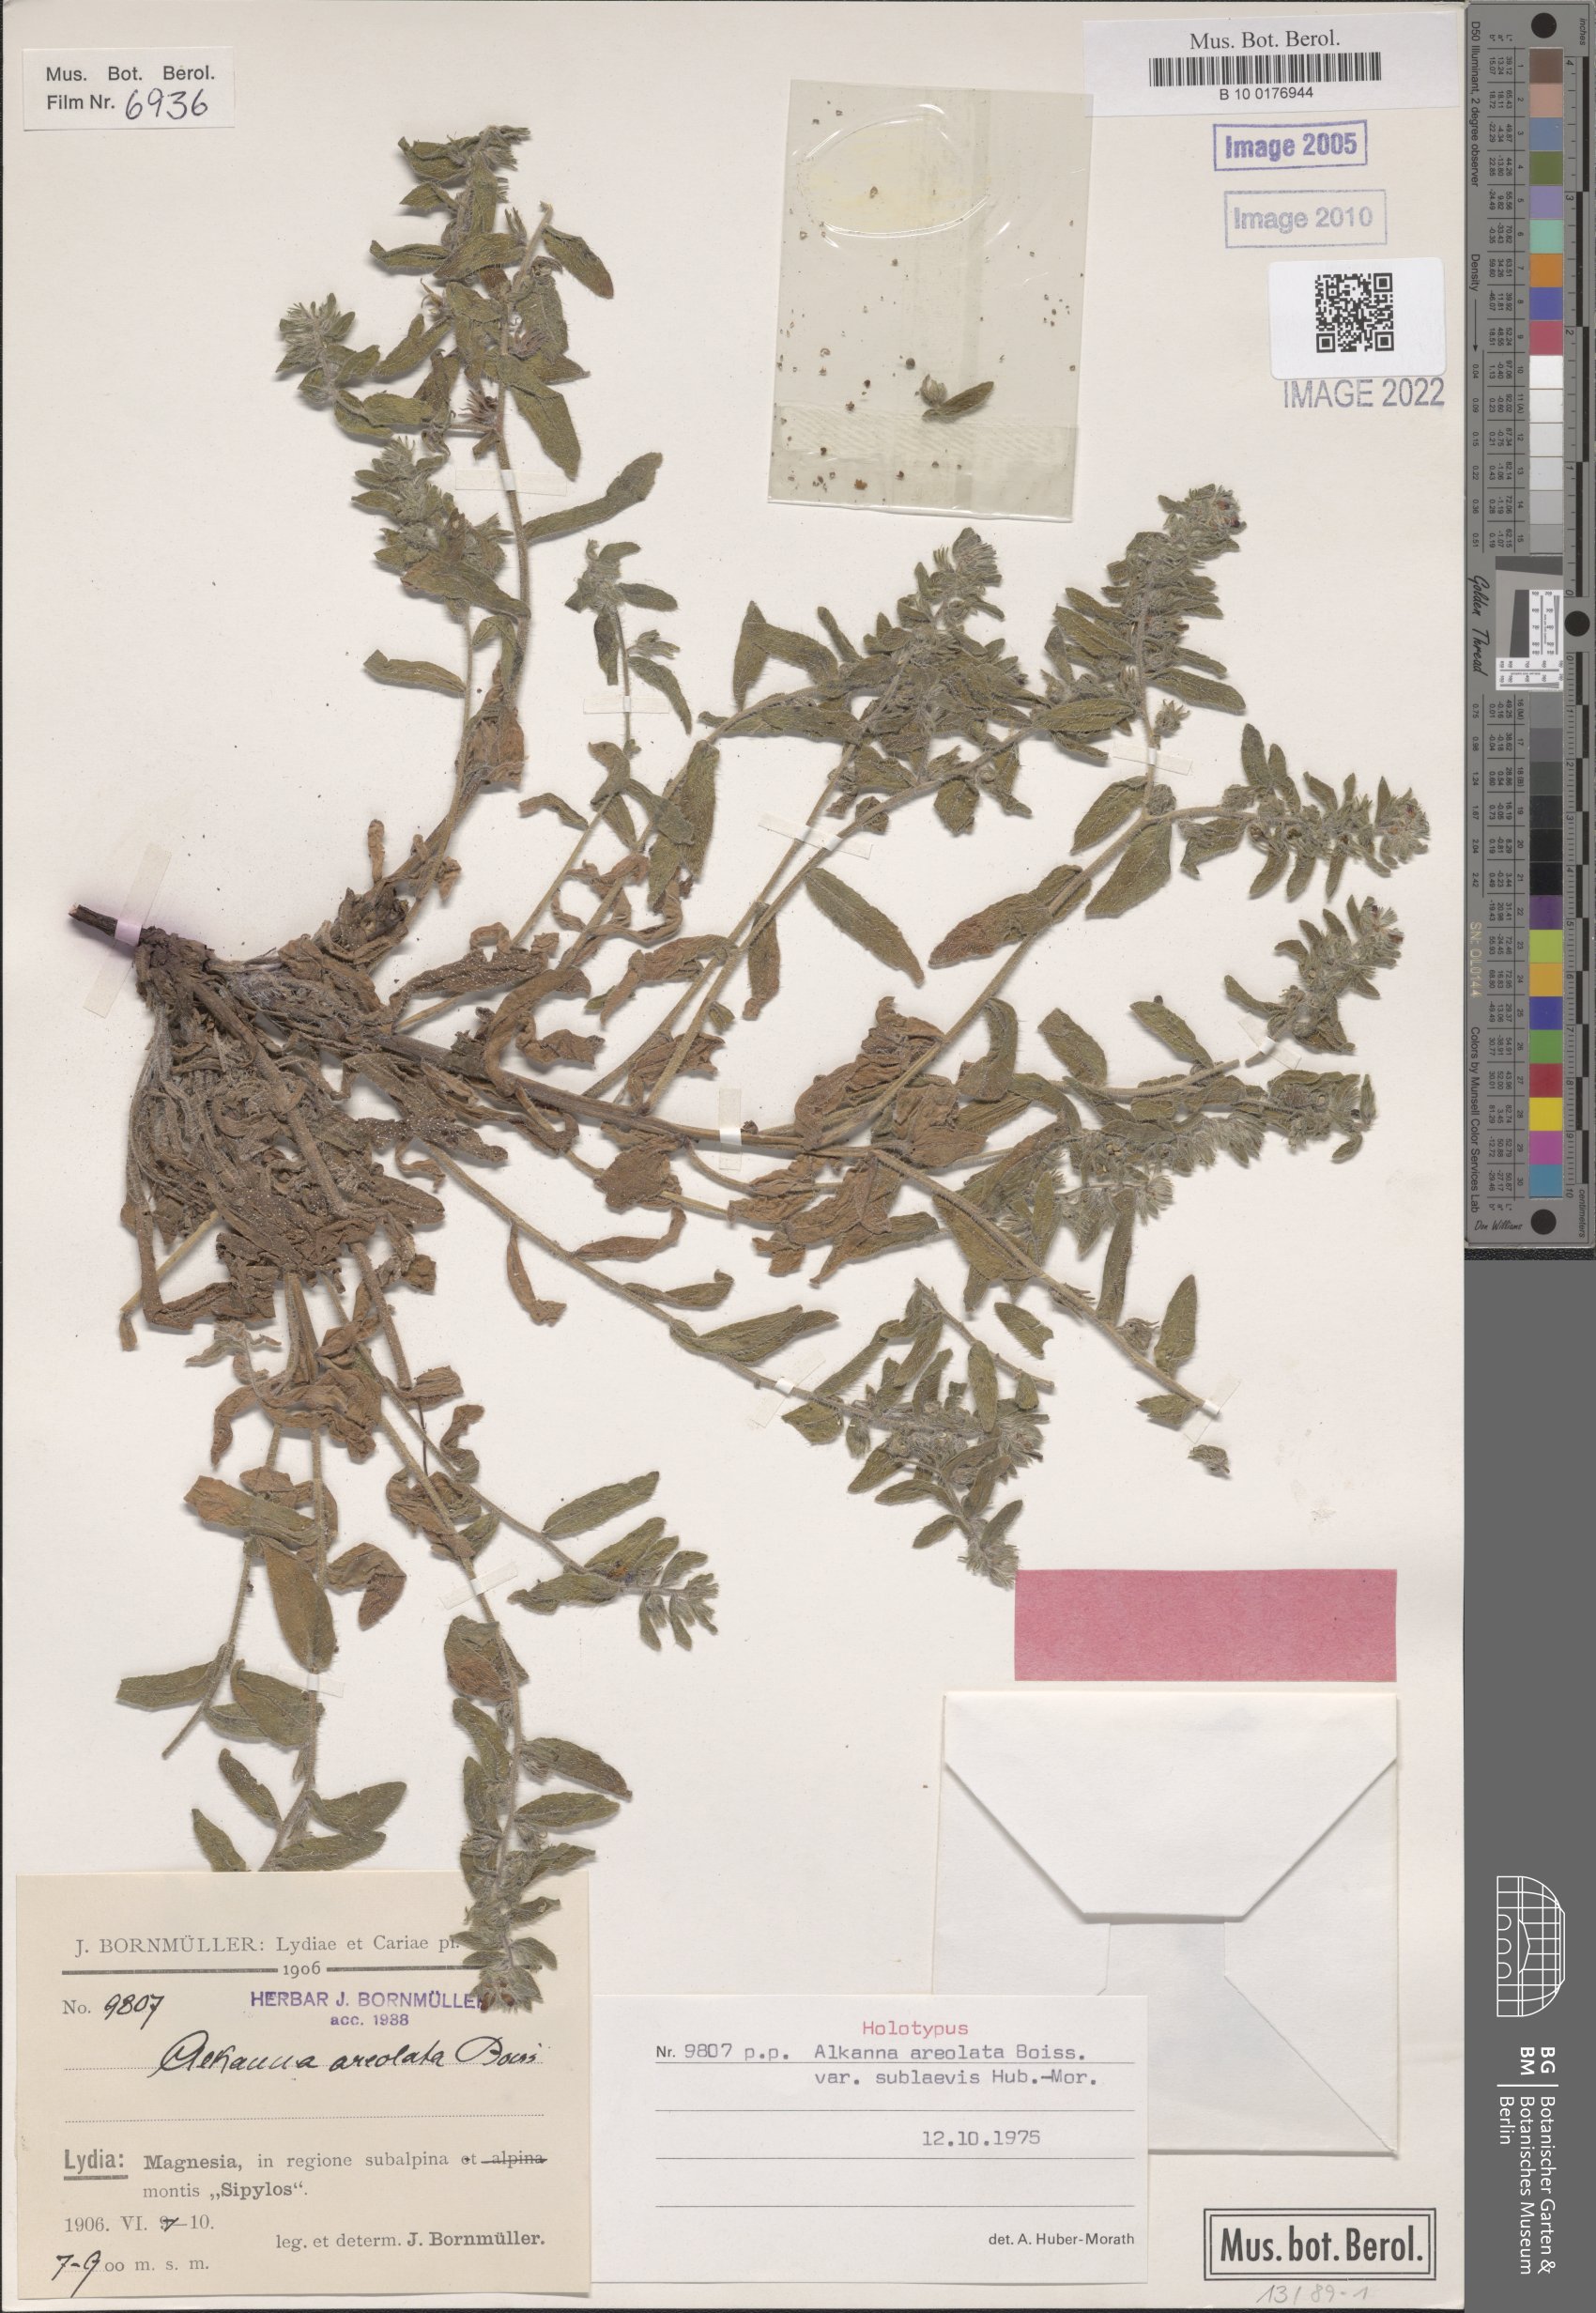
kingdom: Plantae
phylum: Tracheophyta
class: Magnoliopsida
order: Boraginales
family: Boraginaceae
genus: Alkanna
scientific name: Alkanna areolata
